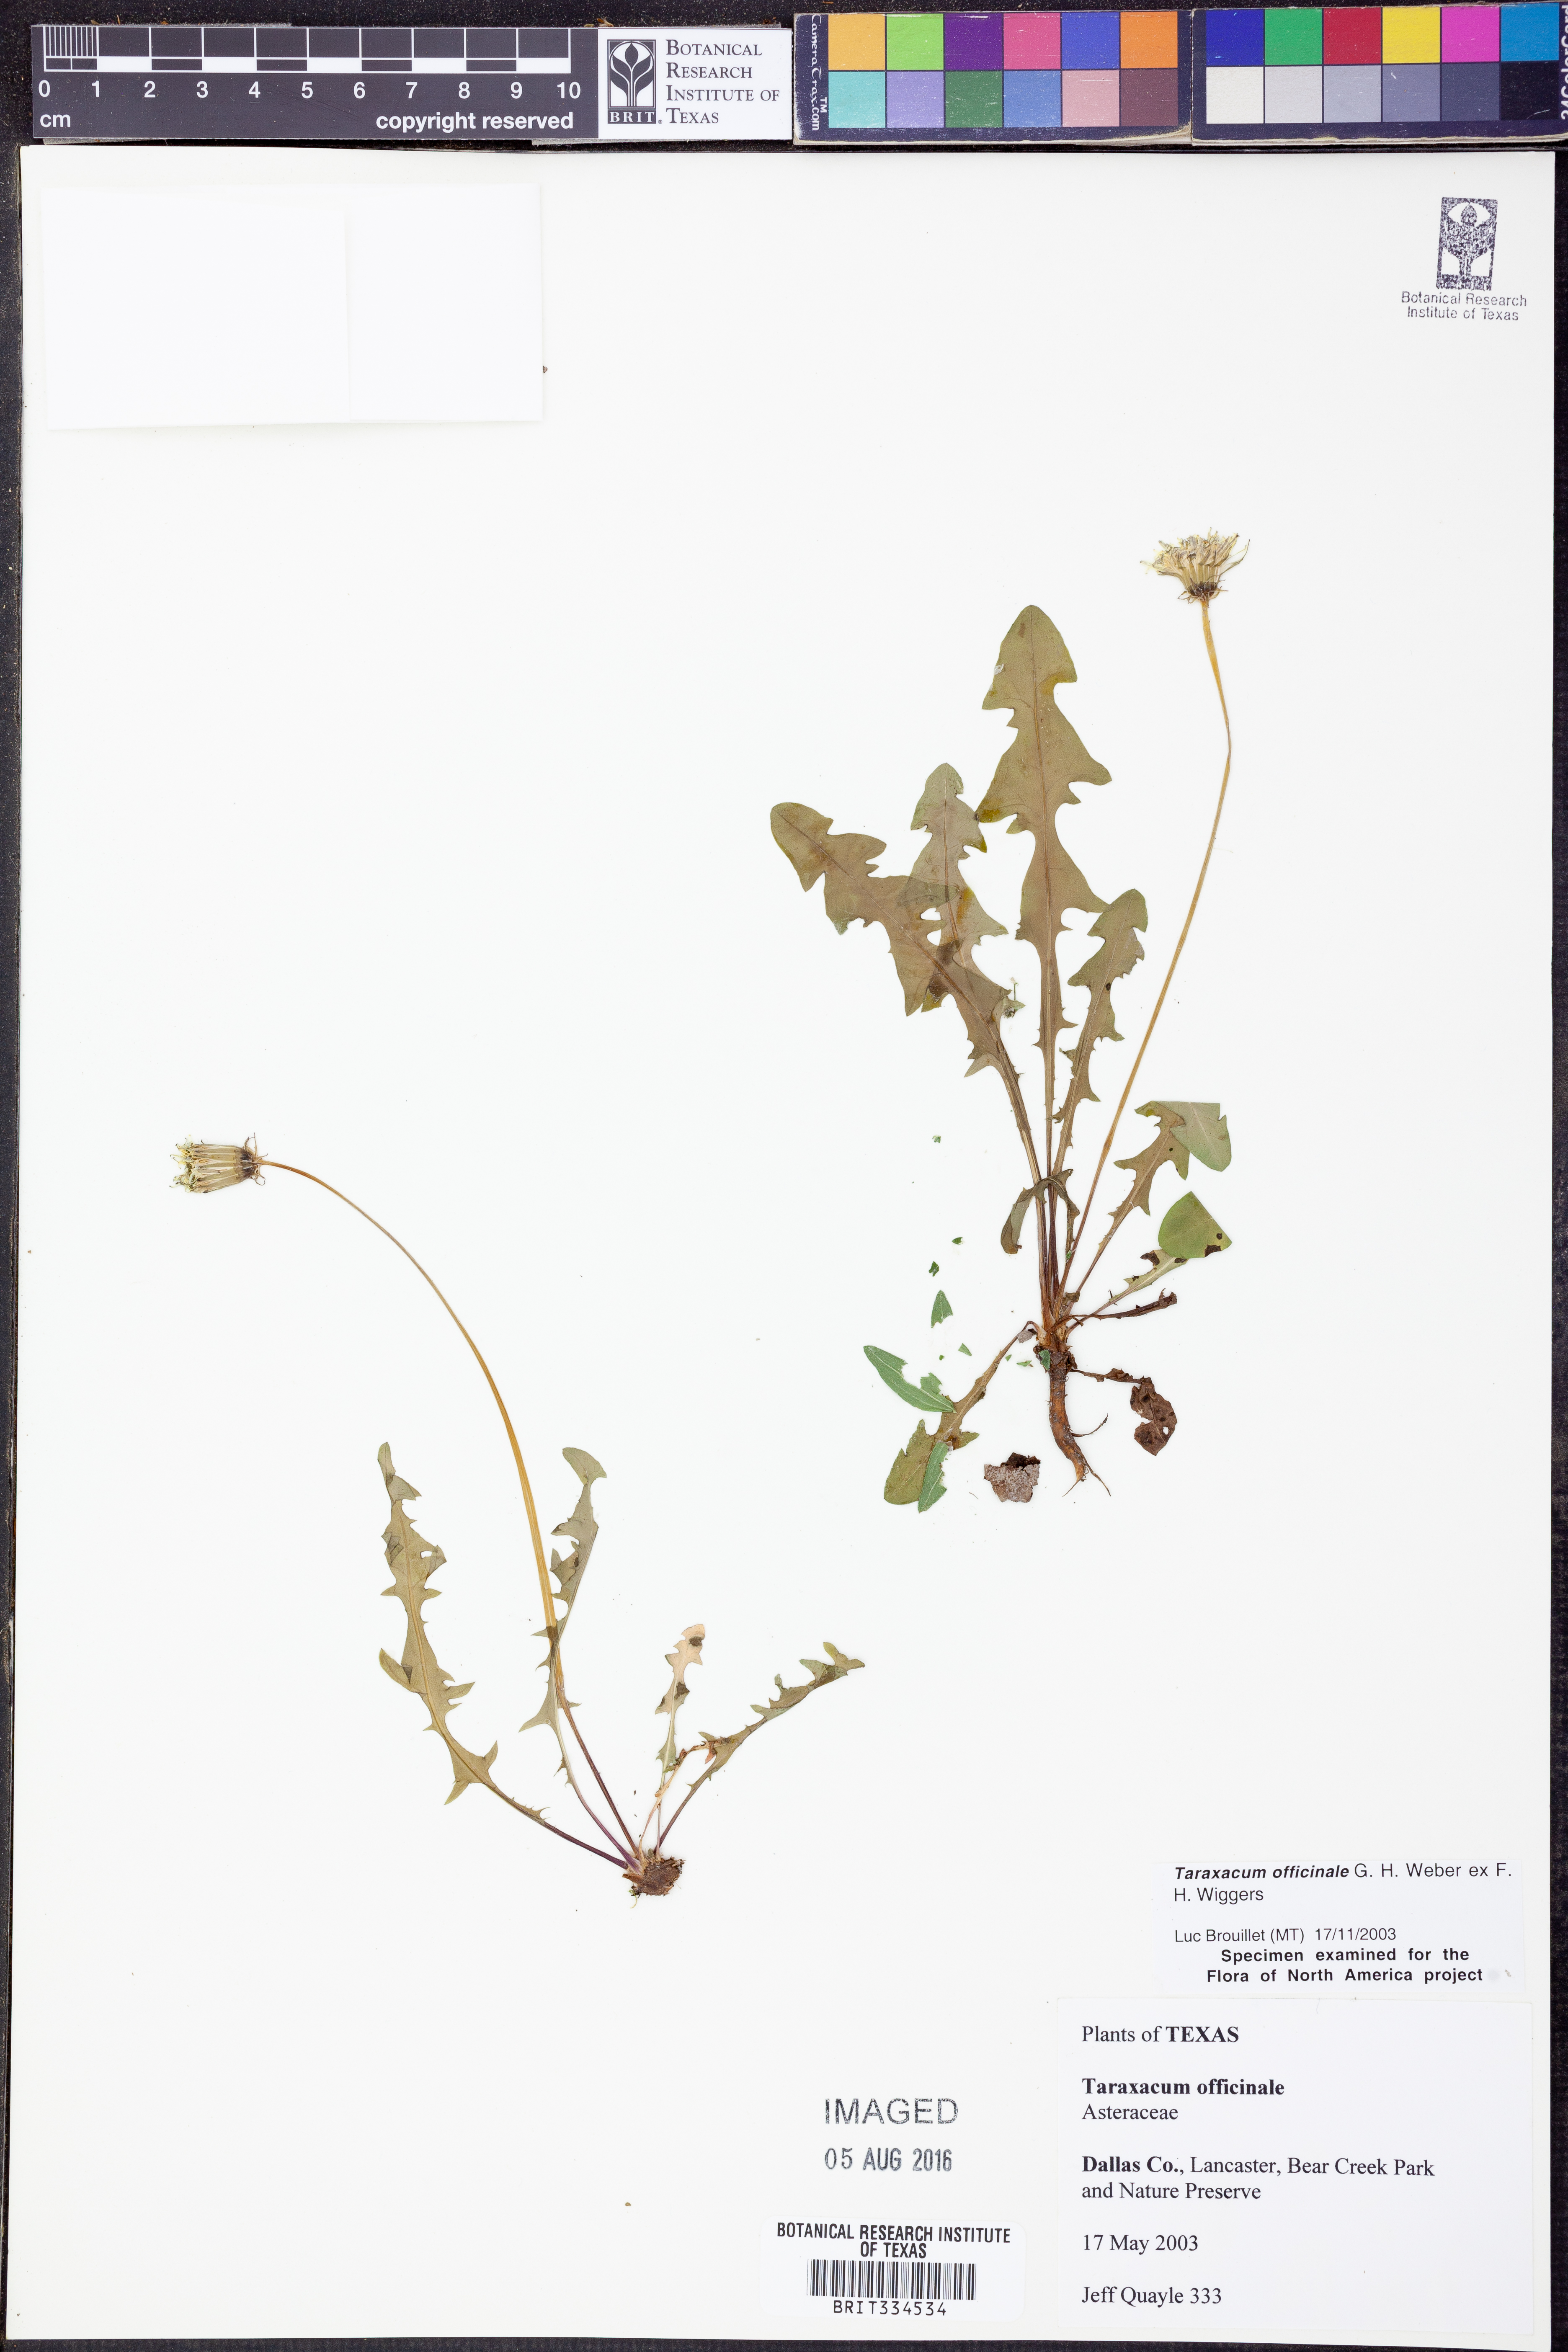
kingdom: Plantae
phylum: Tracheophyta
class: Magnoliopsida
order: Asterales
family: Asteraceae
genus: Taraxacum
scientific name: Taraxacum officinale
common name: Common dandelion
